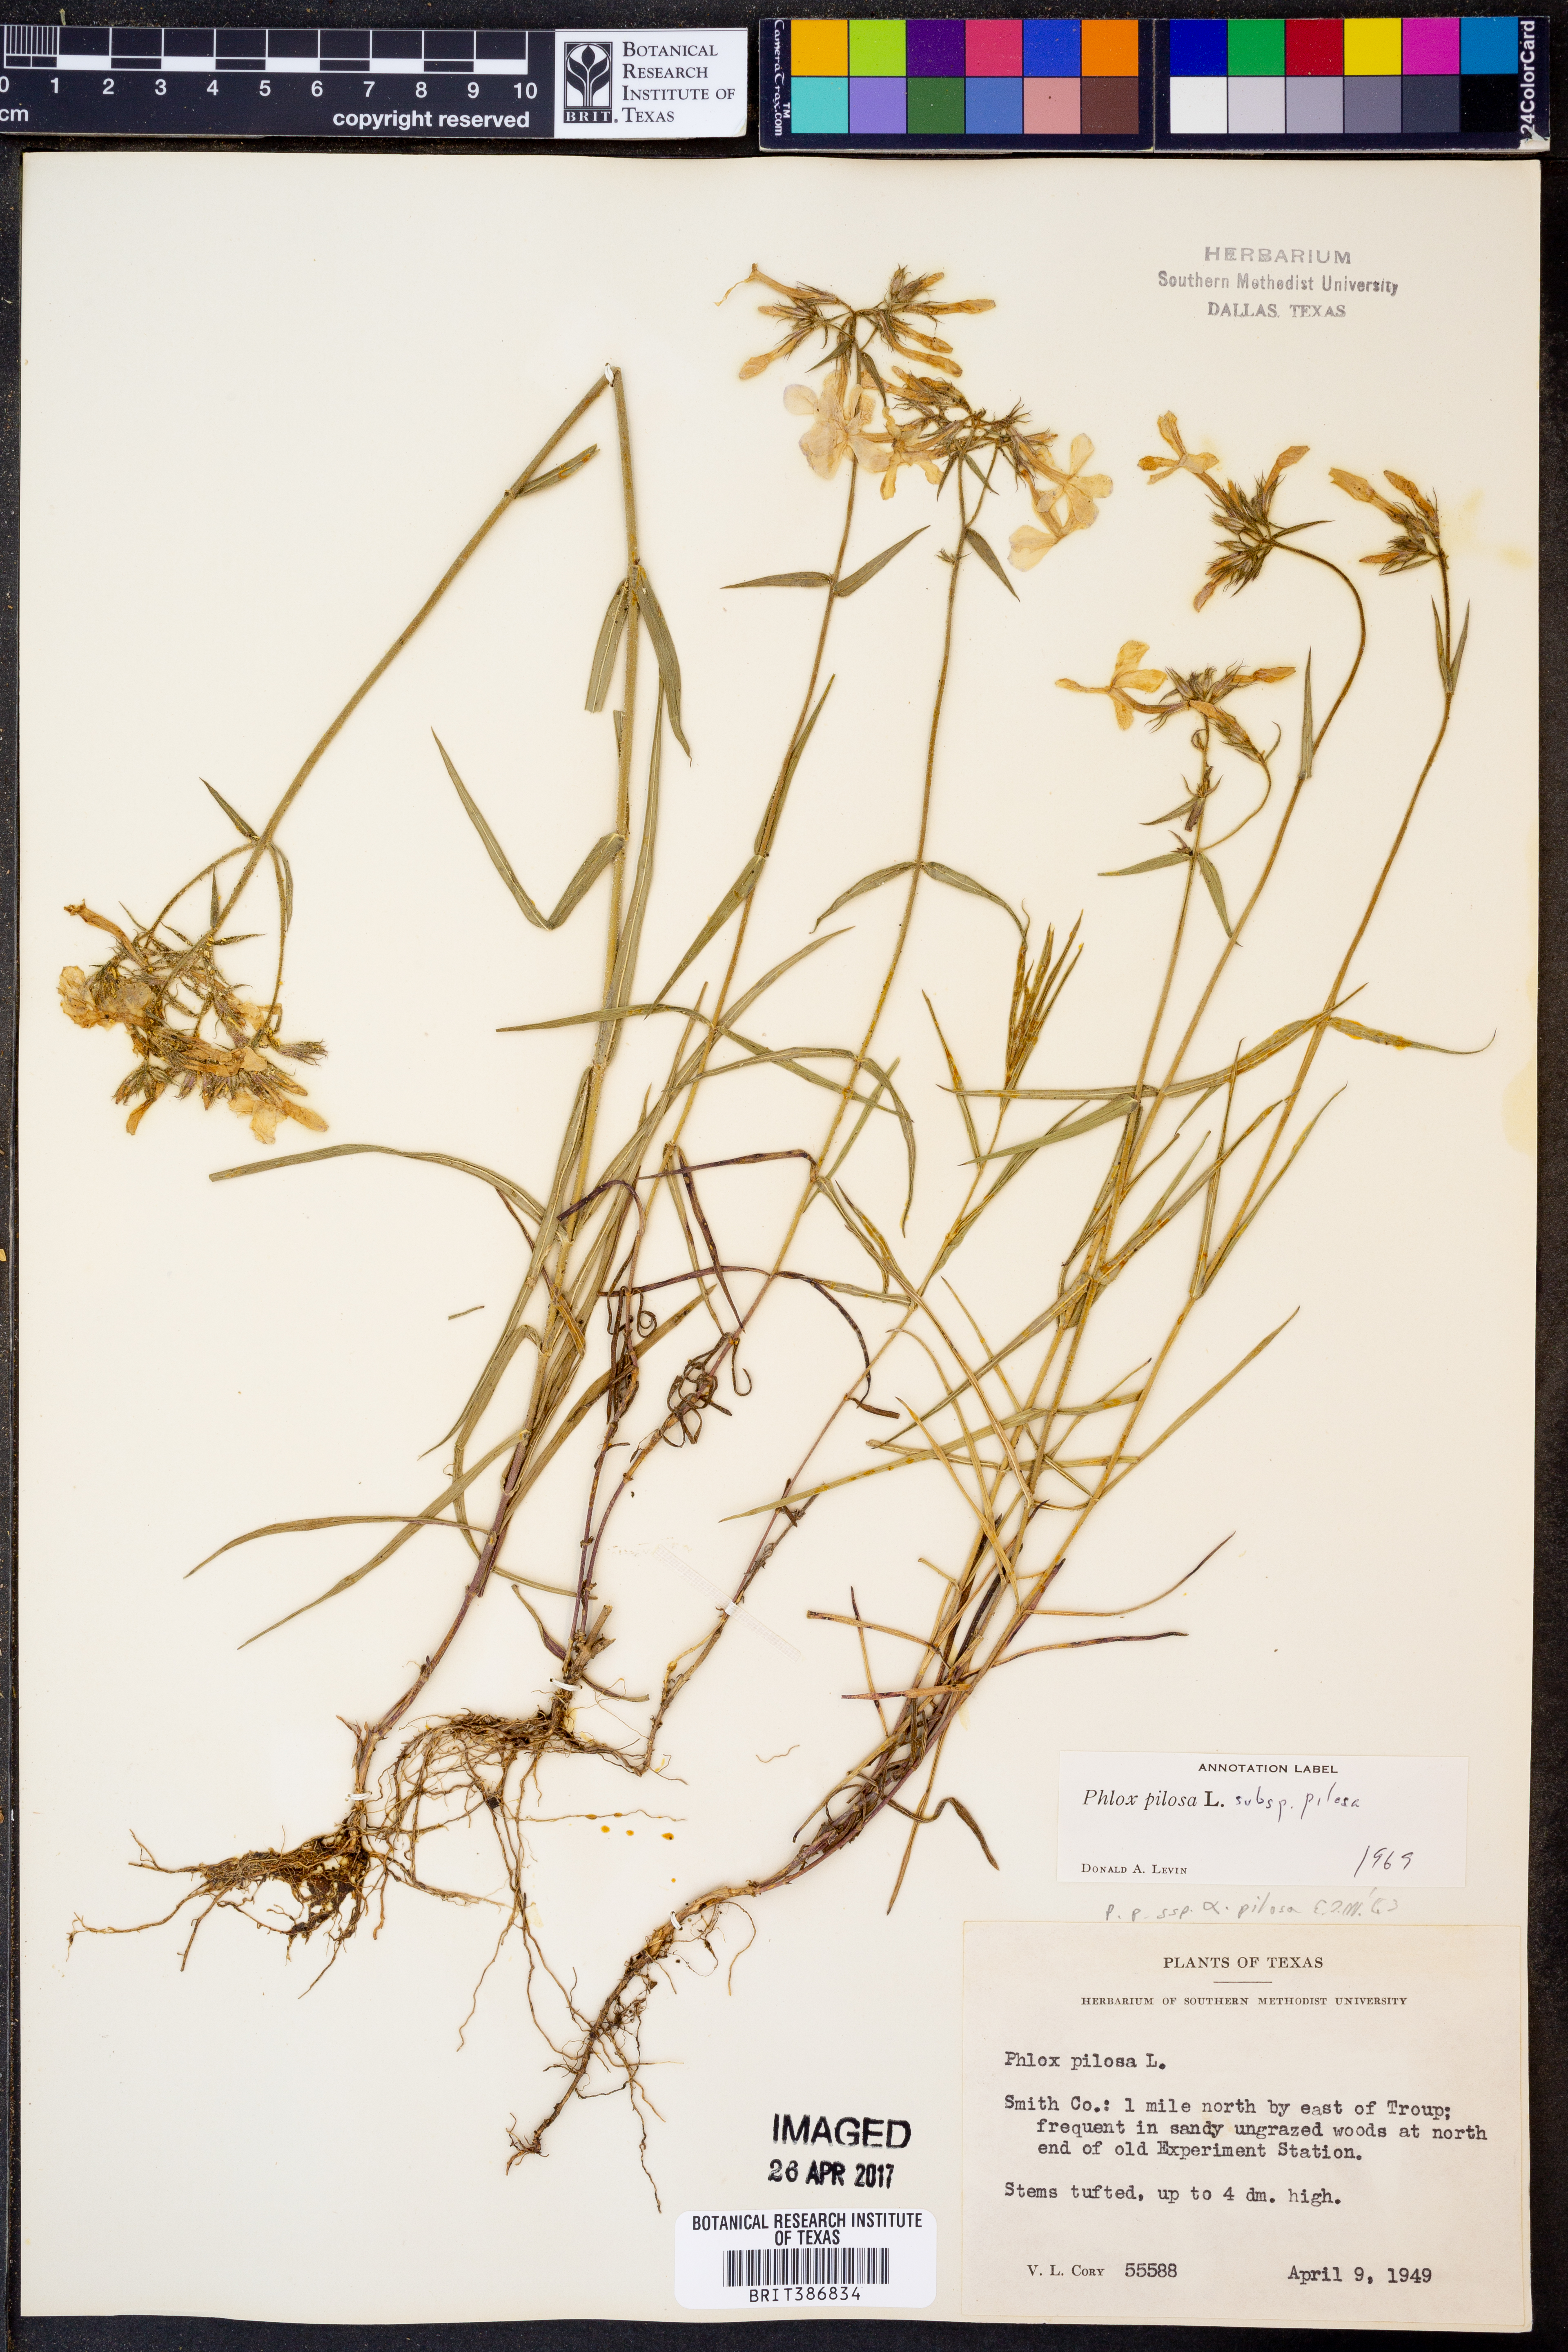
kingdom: Plantae
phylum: Tracheophyta
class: Magnoliopsida
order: Ericales
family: Polemoniaceae
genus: Phlox
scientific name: Phlox pilosa
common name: Prairie phlox
